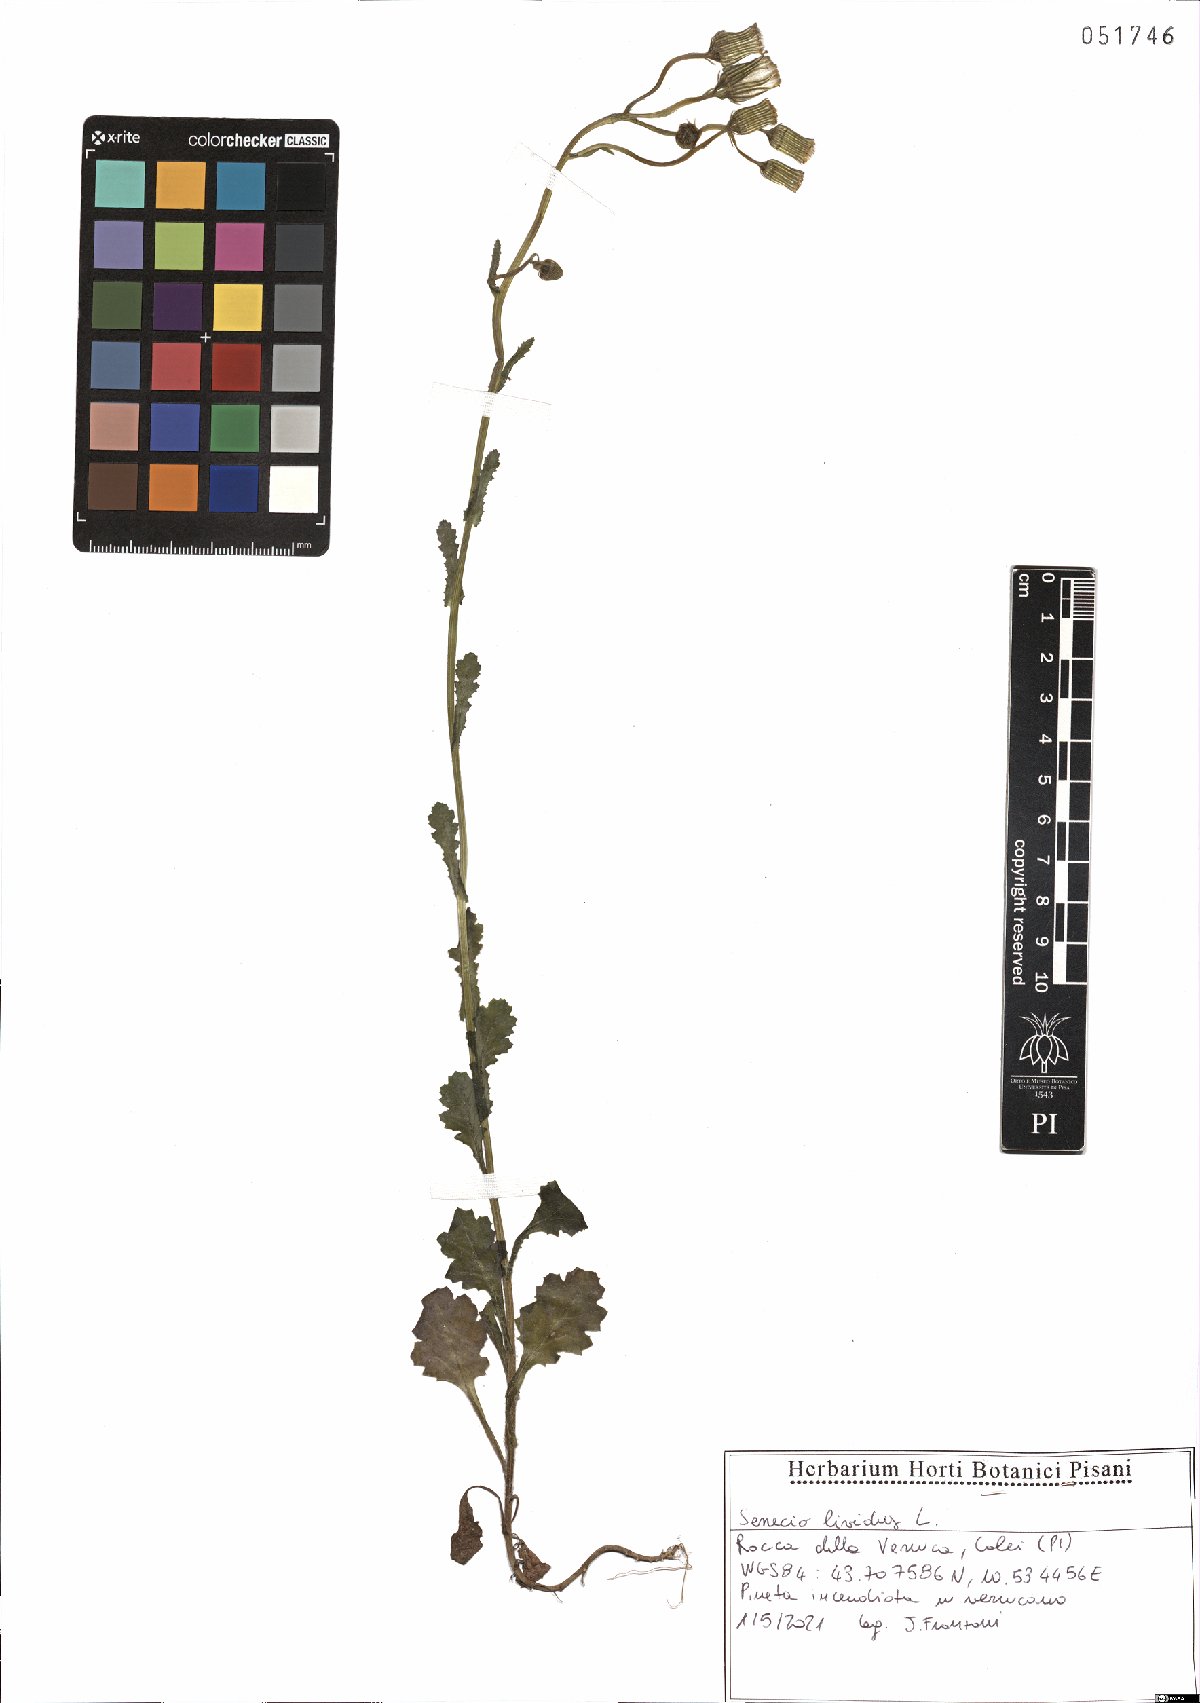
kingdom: Plantae
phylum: Tracheophyta
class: Magnoliopsida
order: Asterales
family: Asteraceae
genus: Senecio
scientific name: Senecio lividus
